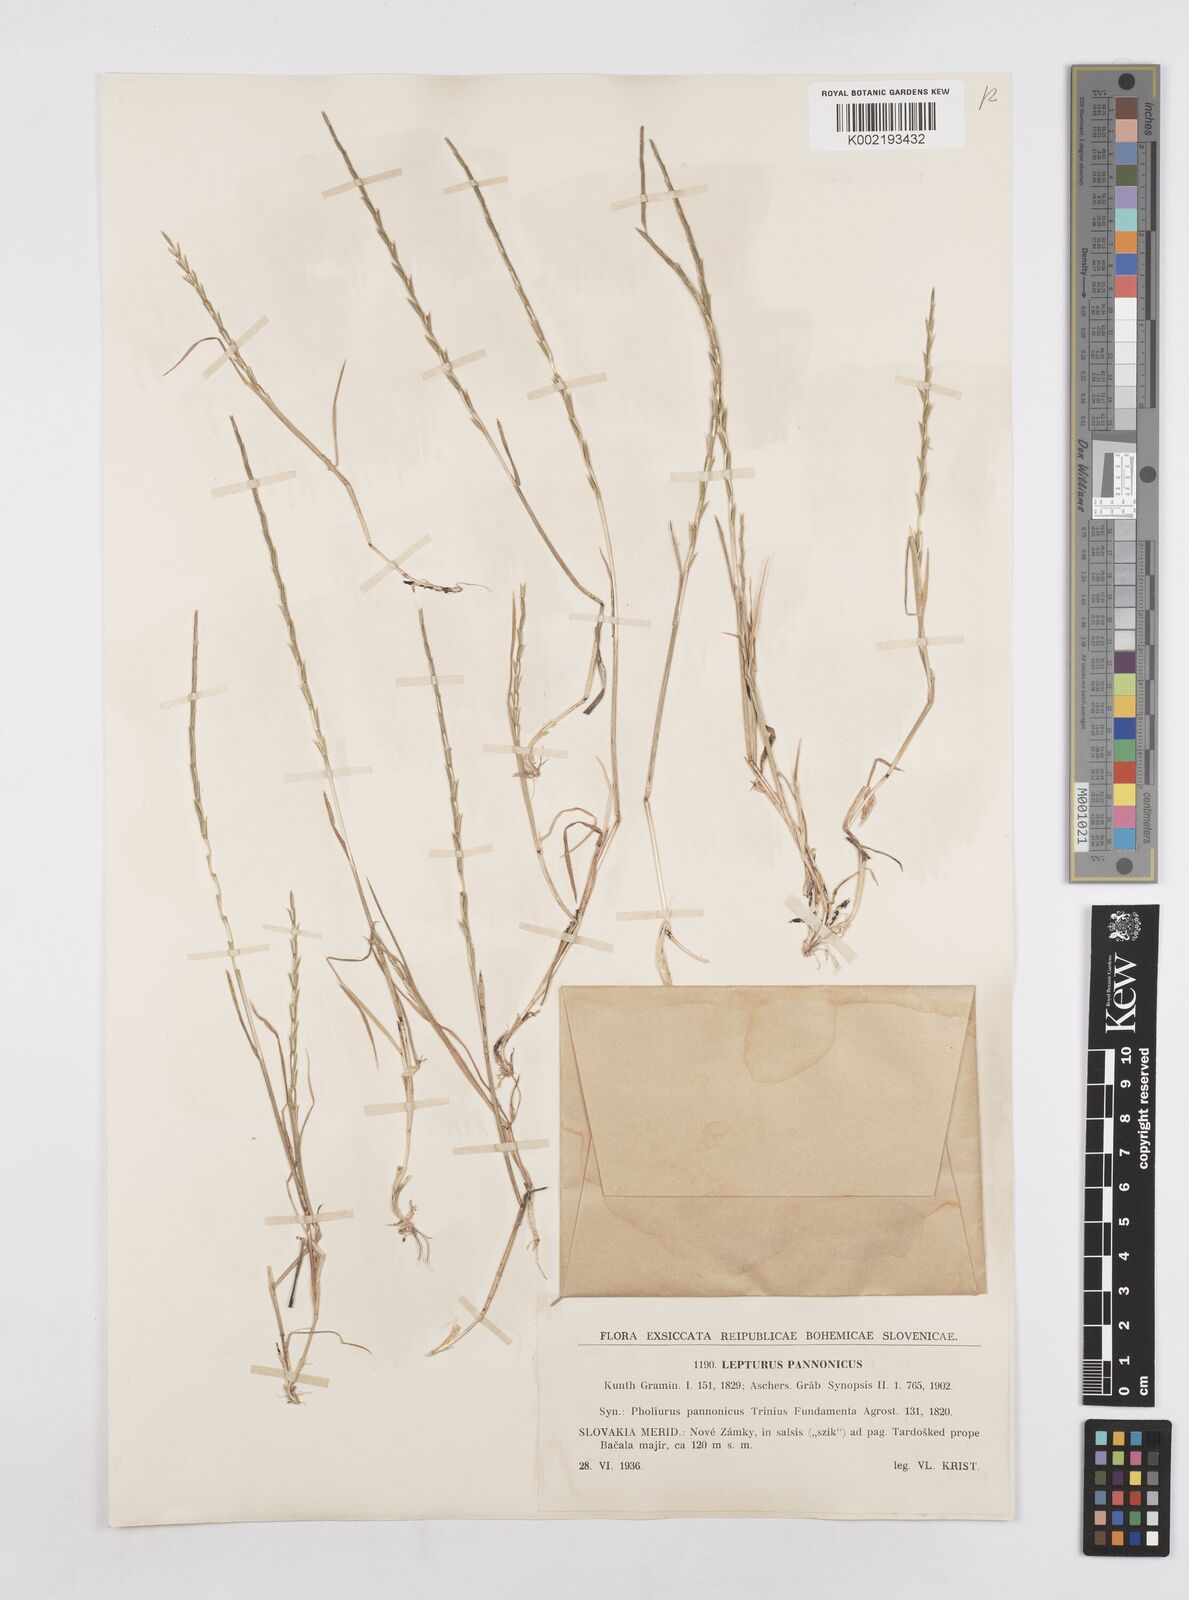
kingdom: Plantae
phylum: Tracheophyta
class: Liliopsida
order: Poales
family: Poaceae
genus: Pholiurus
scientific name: Pholiurus pannonicus
